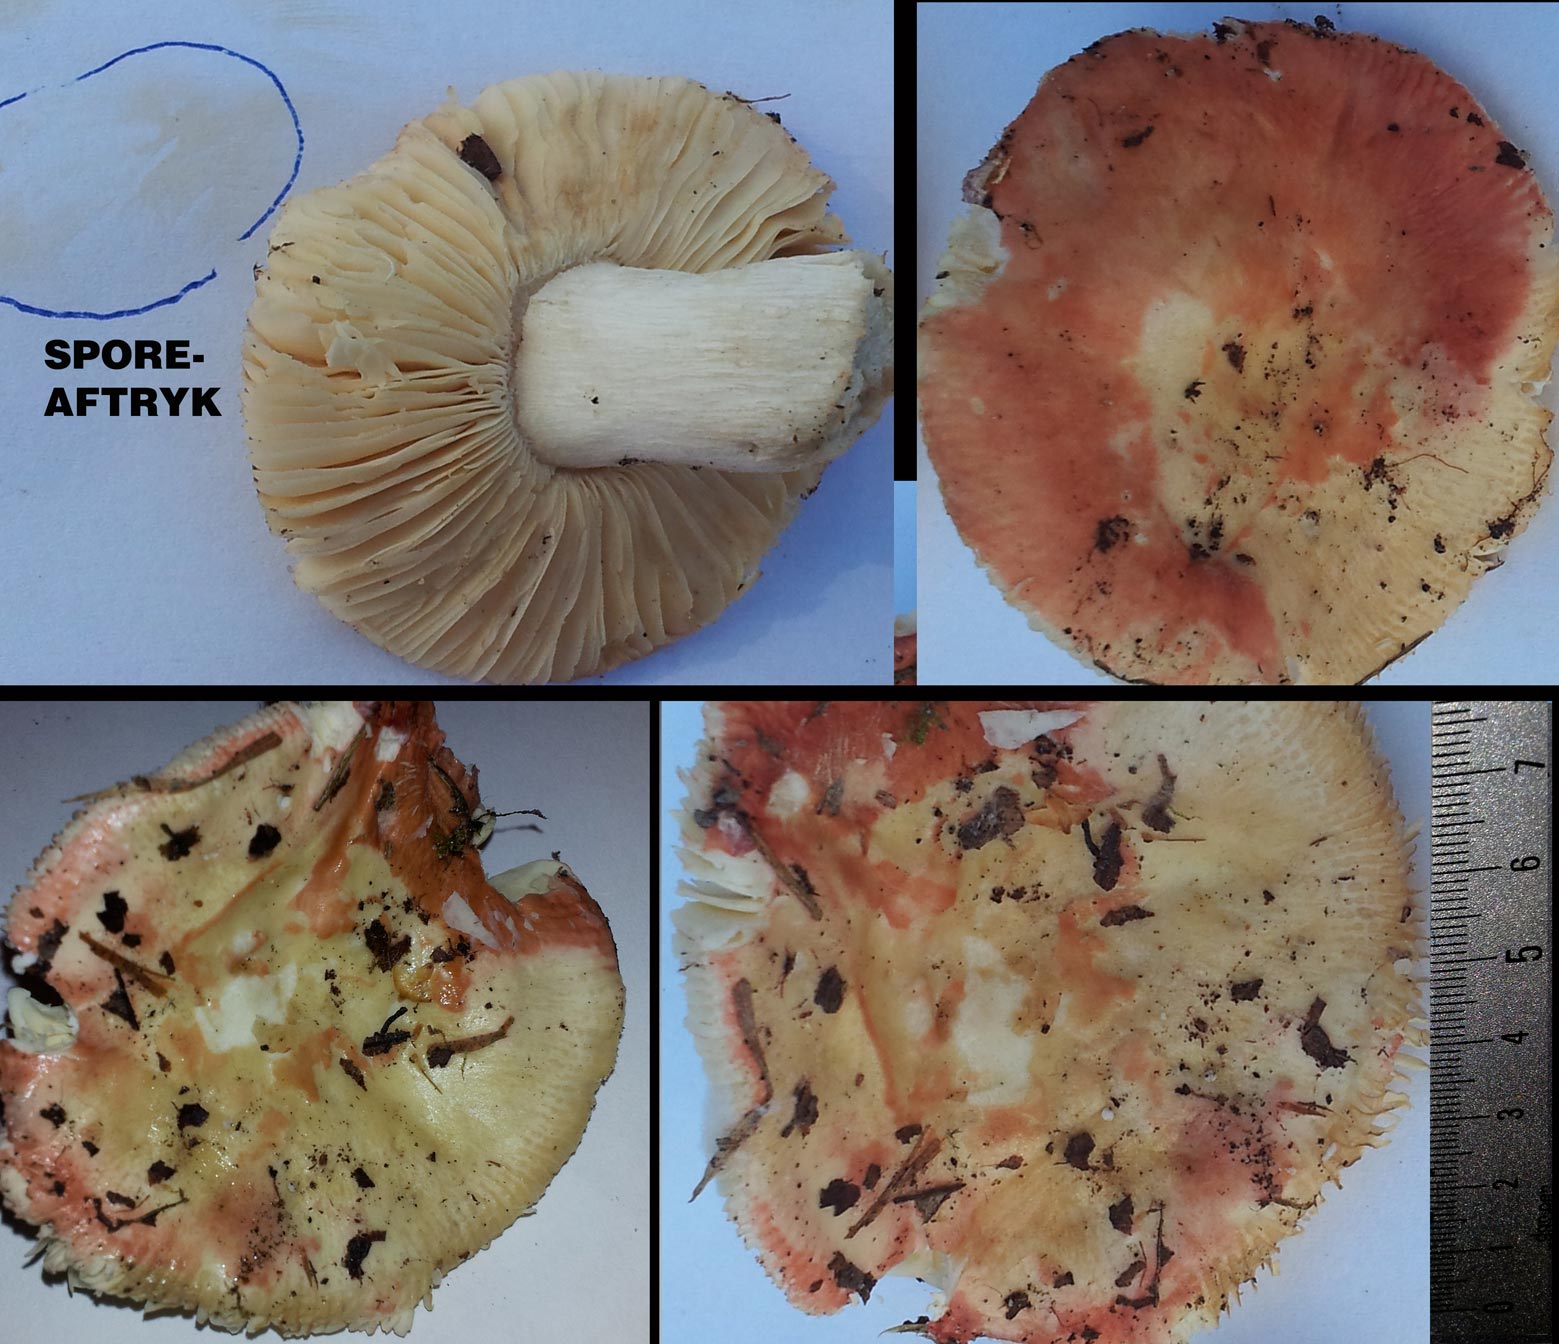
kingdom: Fungi
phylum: Basidiomycota
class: Agaricomycetes
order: Russulales
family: Russulaceae
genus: Russula
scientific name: Russula depallens
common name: falmende skørhat
